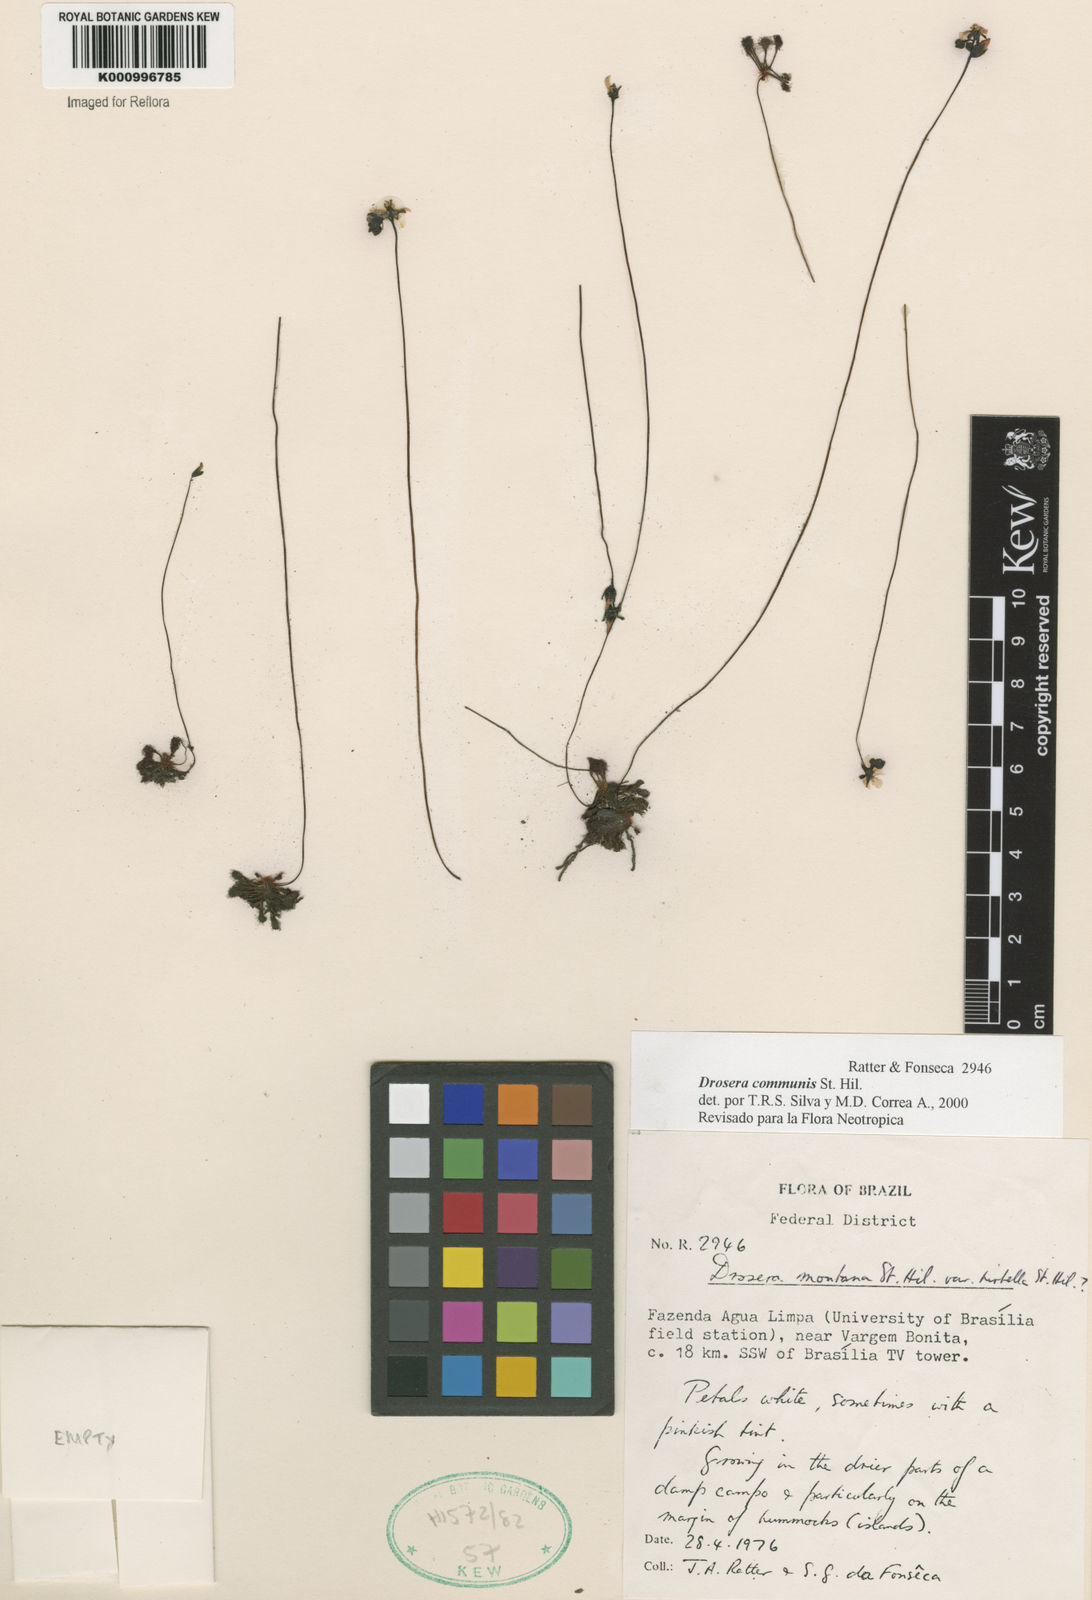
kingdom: Plantae
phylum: Tracheophyta
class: Magnoliopsida
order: Caryophyllales
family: Droseraceae
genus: Drosera
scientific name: Drosera communis
